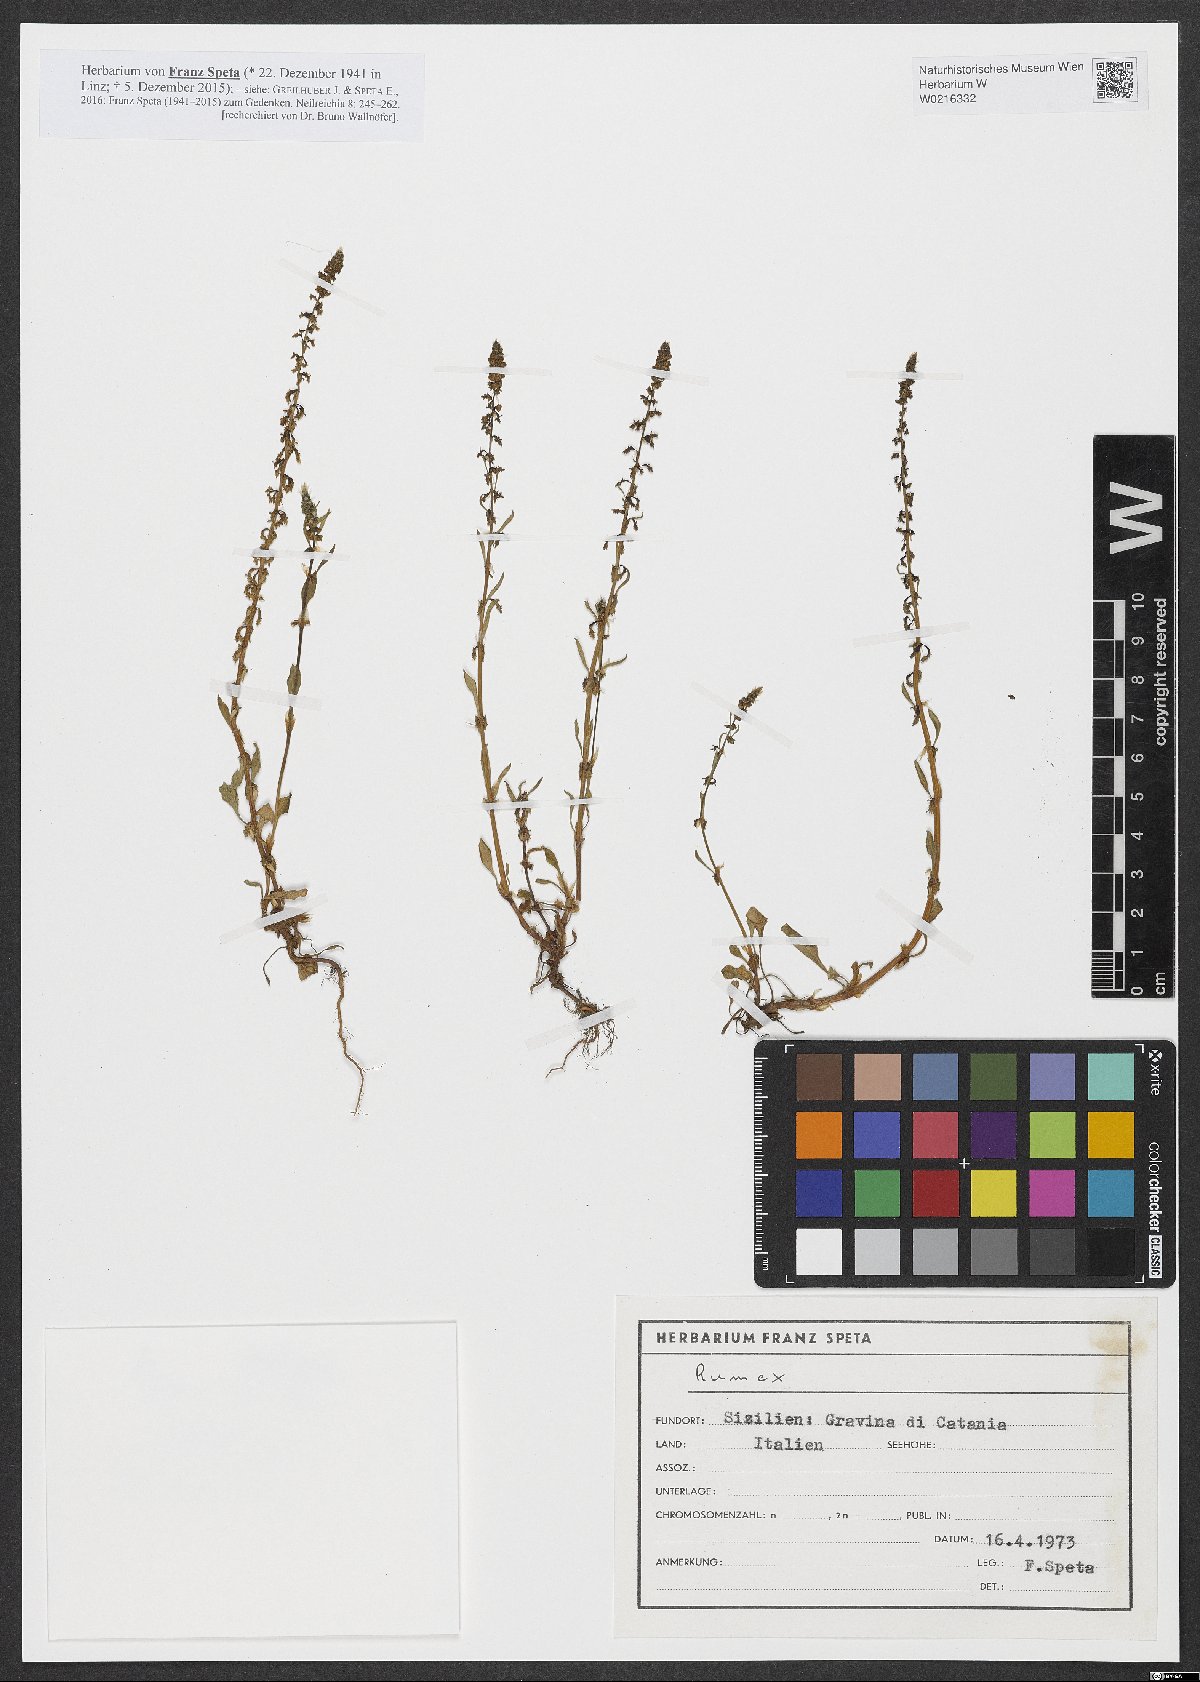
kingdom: Plantae
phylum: Tracheophyta
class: Magnoliopsida
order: Caryophyllales
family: Polygonaceae
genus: Rumex
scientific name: Rumex
